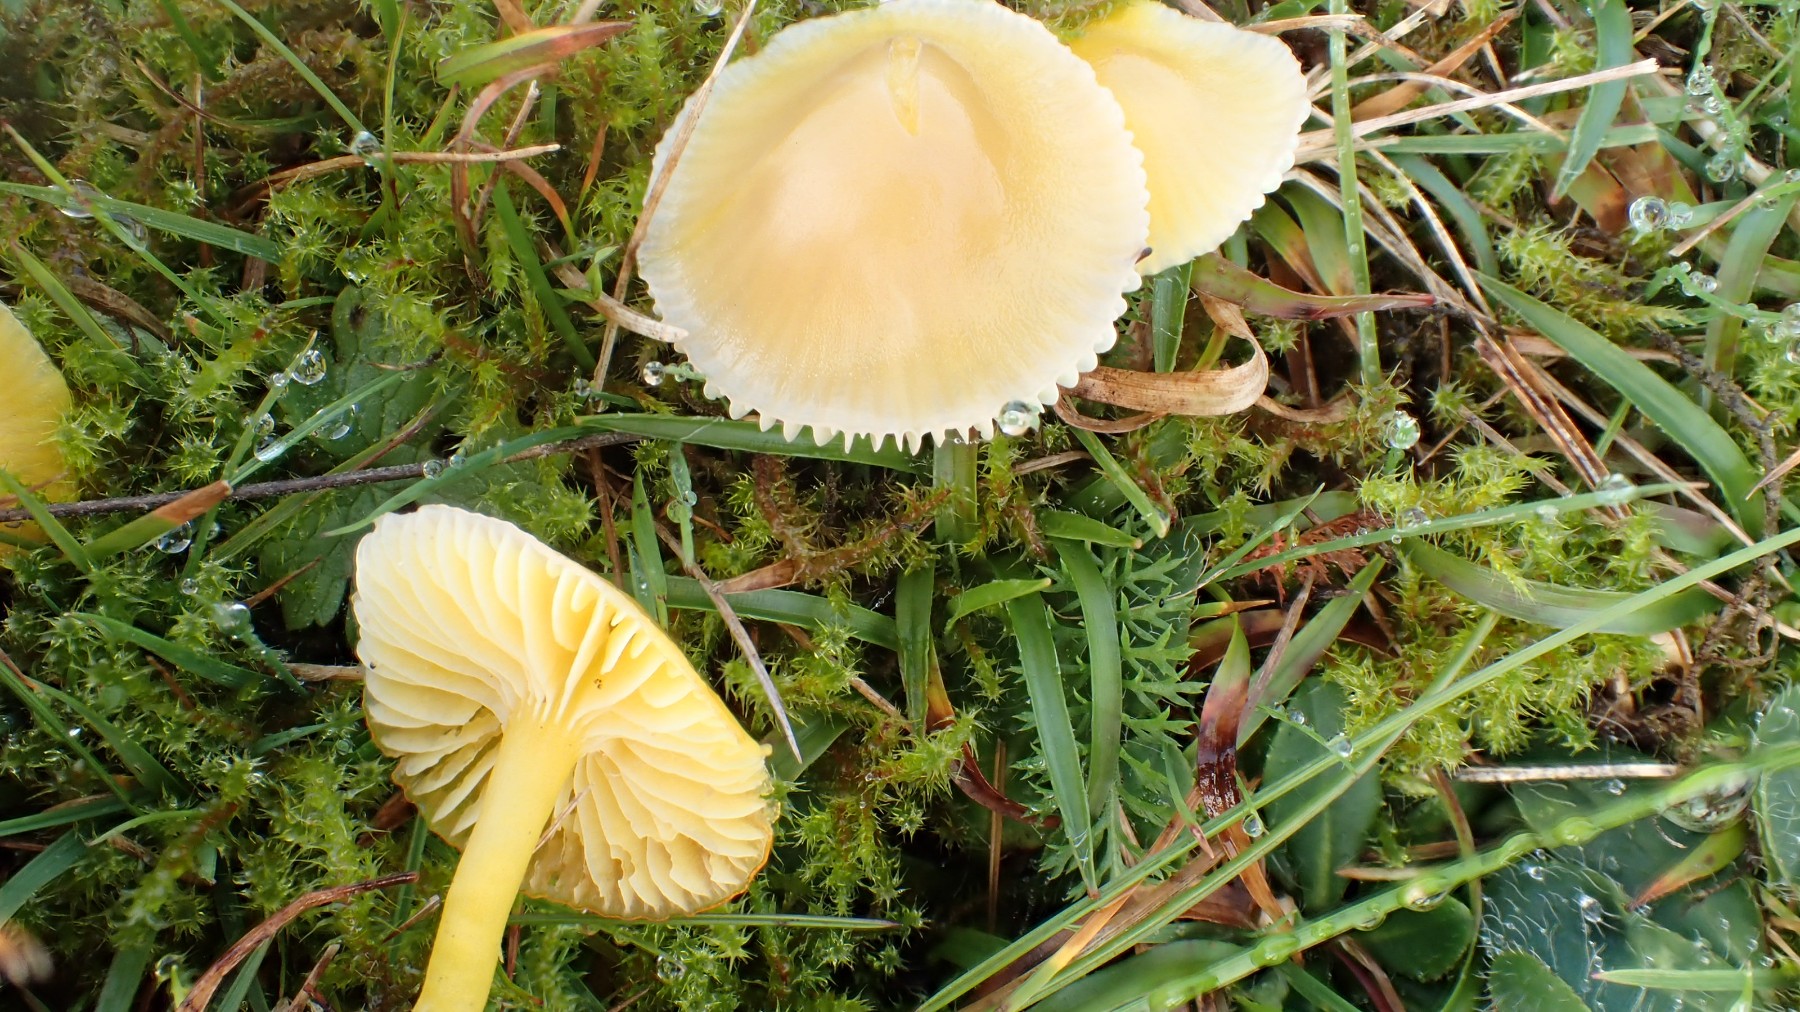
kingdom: Fungi
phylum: Basidiomycota
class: Agaricomycetes
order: Agaricales
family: Hygrophoraceae
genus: Hygrocybe
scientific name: Hygrocybe ceracea
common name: voksgul vokshat
